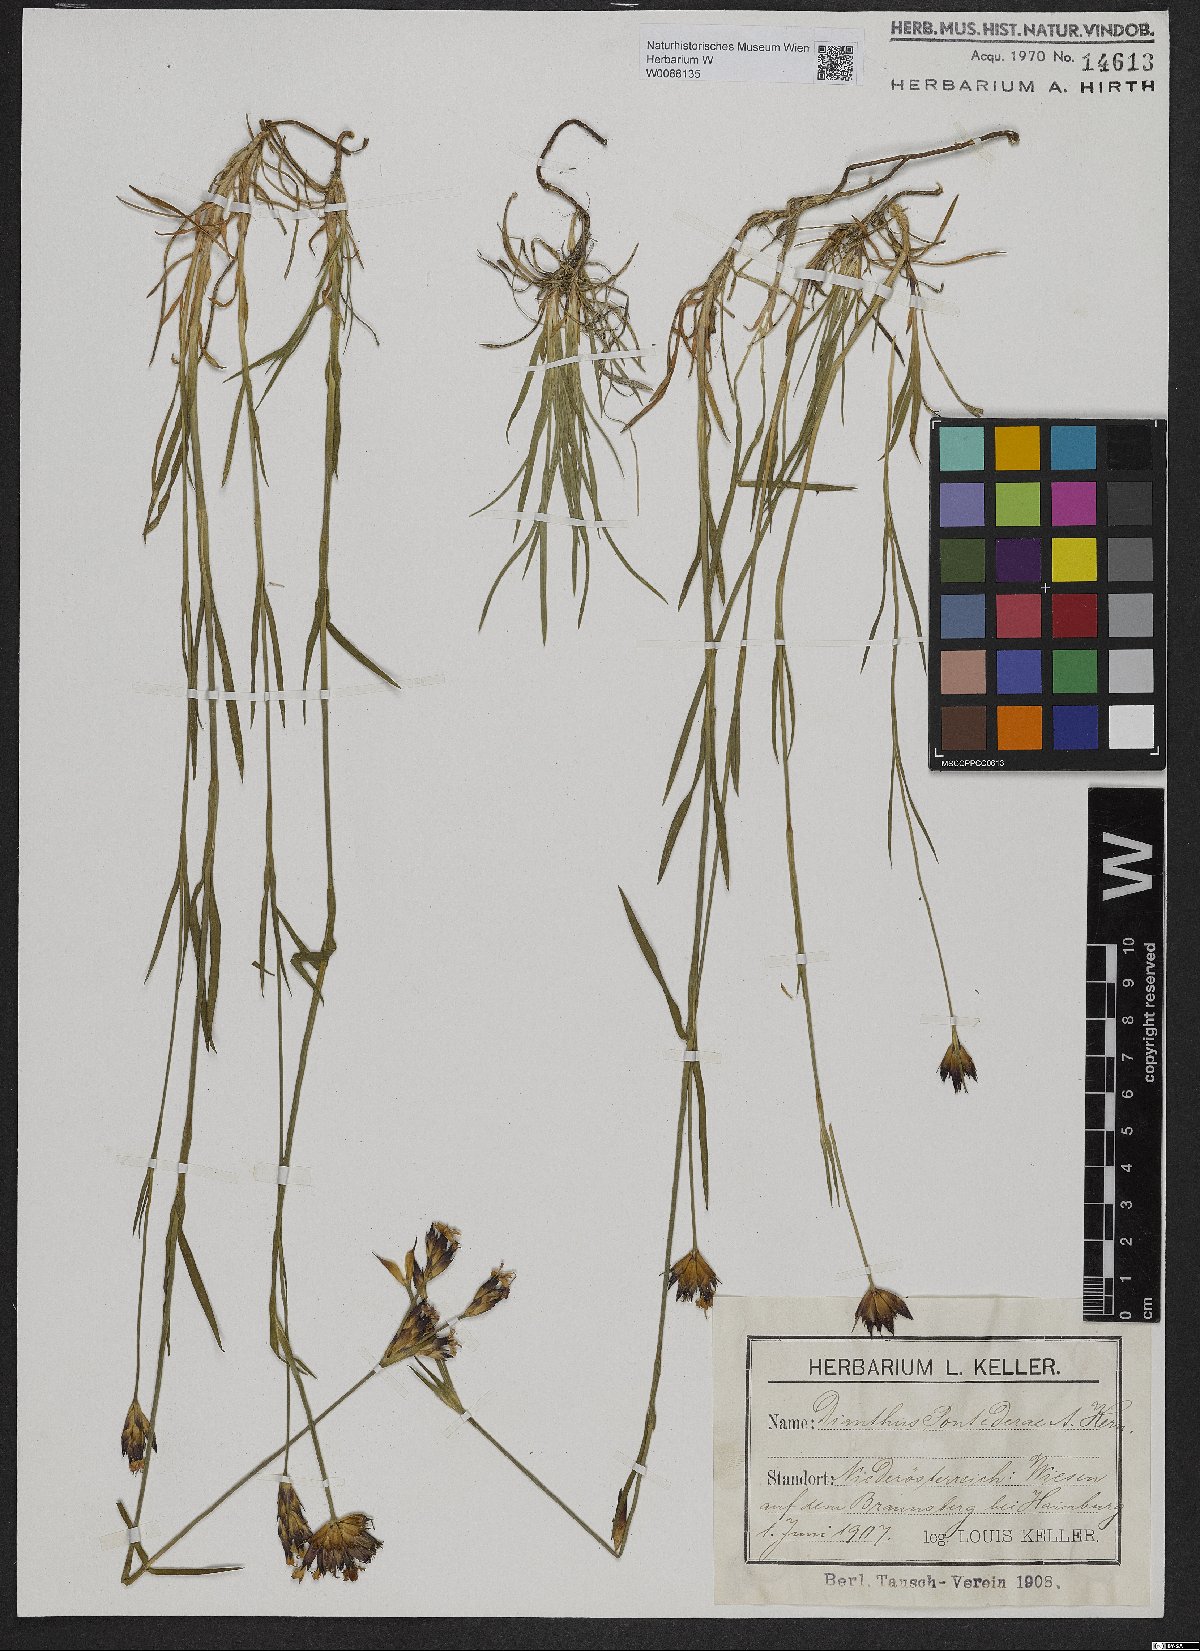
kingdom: Plantae
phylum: Tracheophyta
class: Magnoliopsida
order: Caryophyllales
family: Caryophyllaceae
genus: Dianthus
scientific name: Dianthus pontederae
